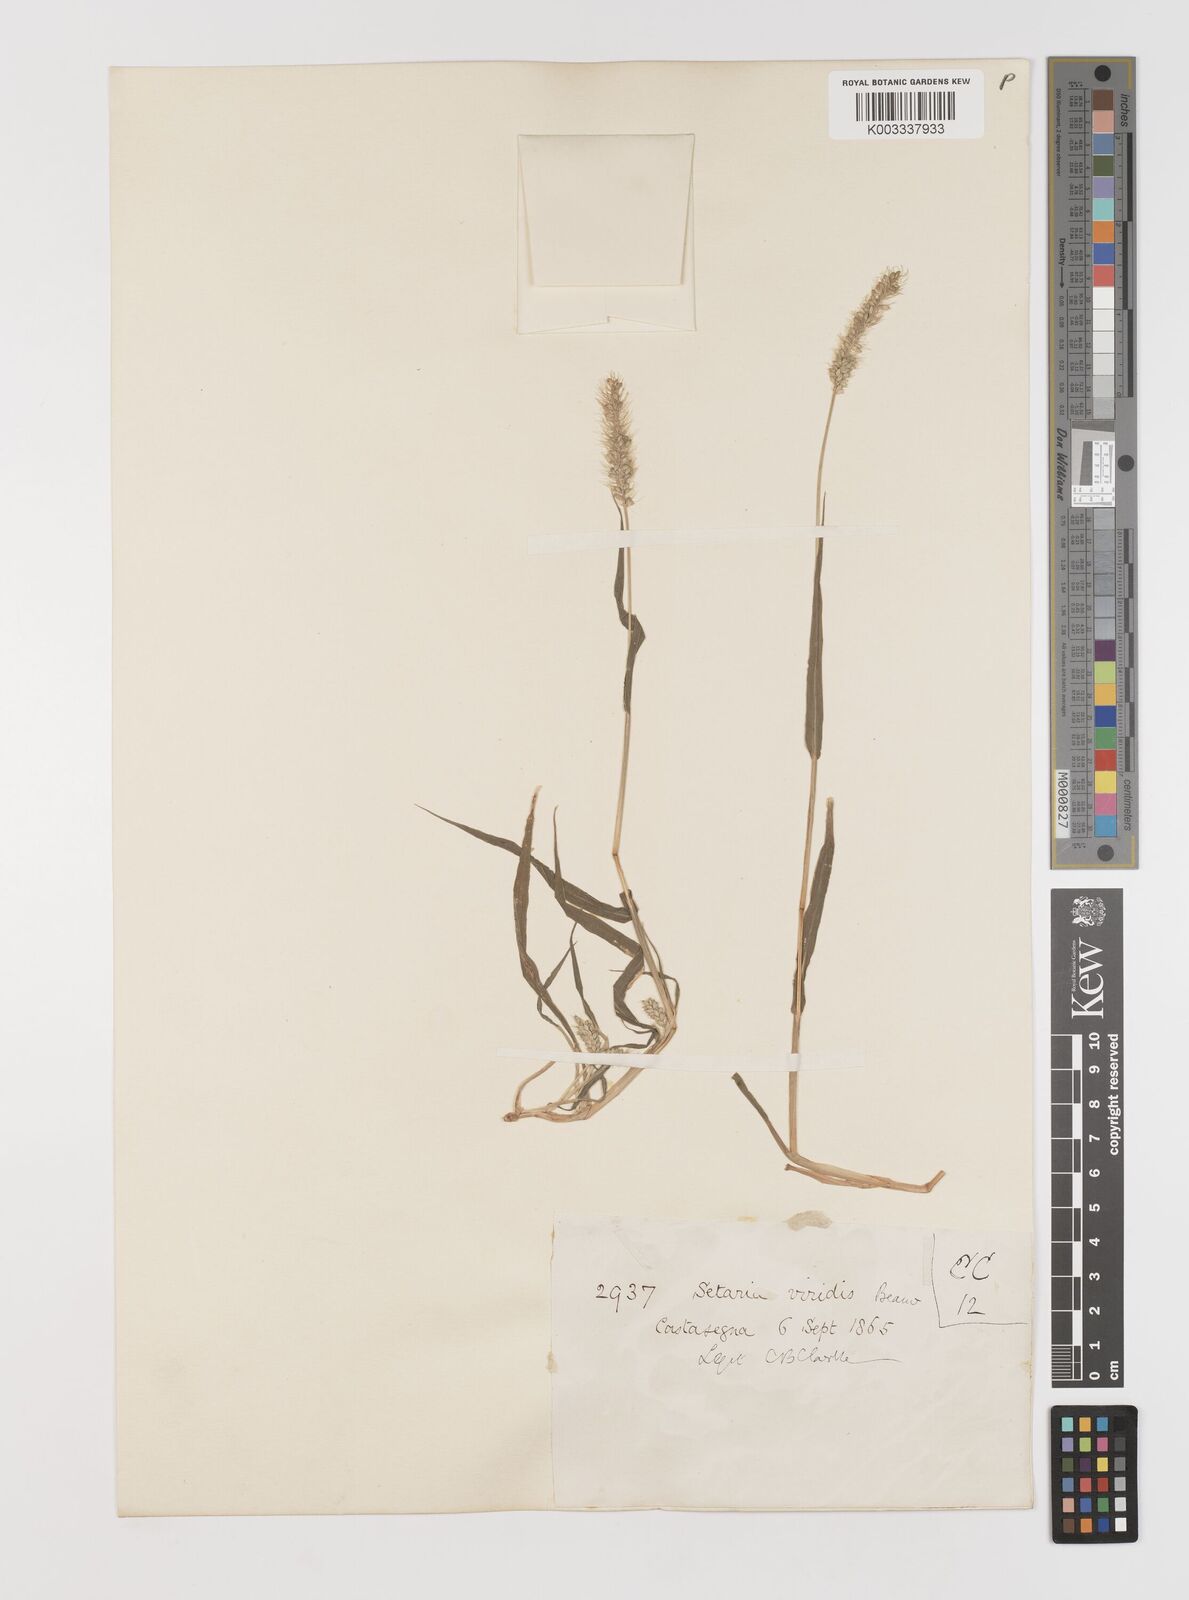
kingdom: Plantae
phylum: Tracheophyta
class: Liliopsida
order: Poales
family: Poaceae
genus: Setaria
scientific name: Setaria viridis
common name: Green bristlegrass
